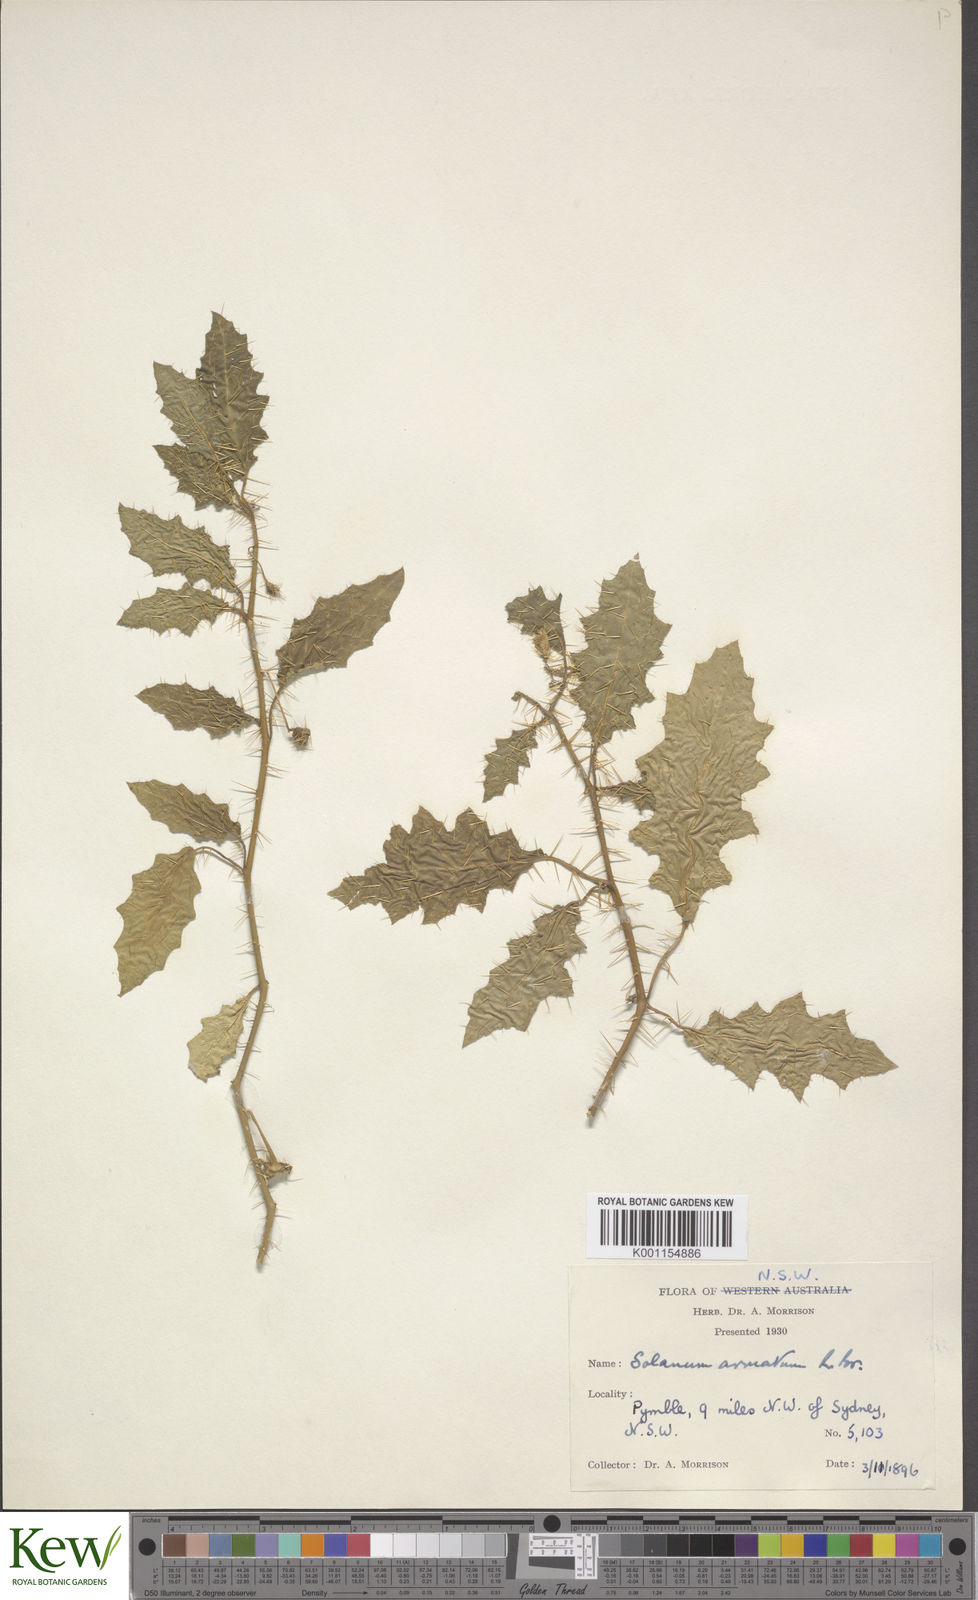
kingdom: Plantae
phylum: Tracheophyta
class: Magnoliopsida
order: Solanales
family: Solanaceae
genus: Solanum
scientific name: Solanum prinophyllum
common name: Forest nightshade
